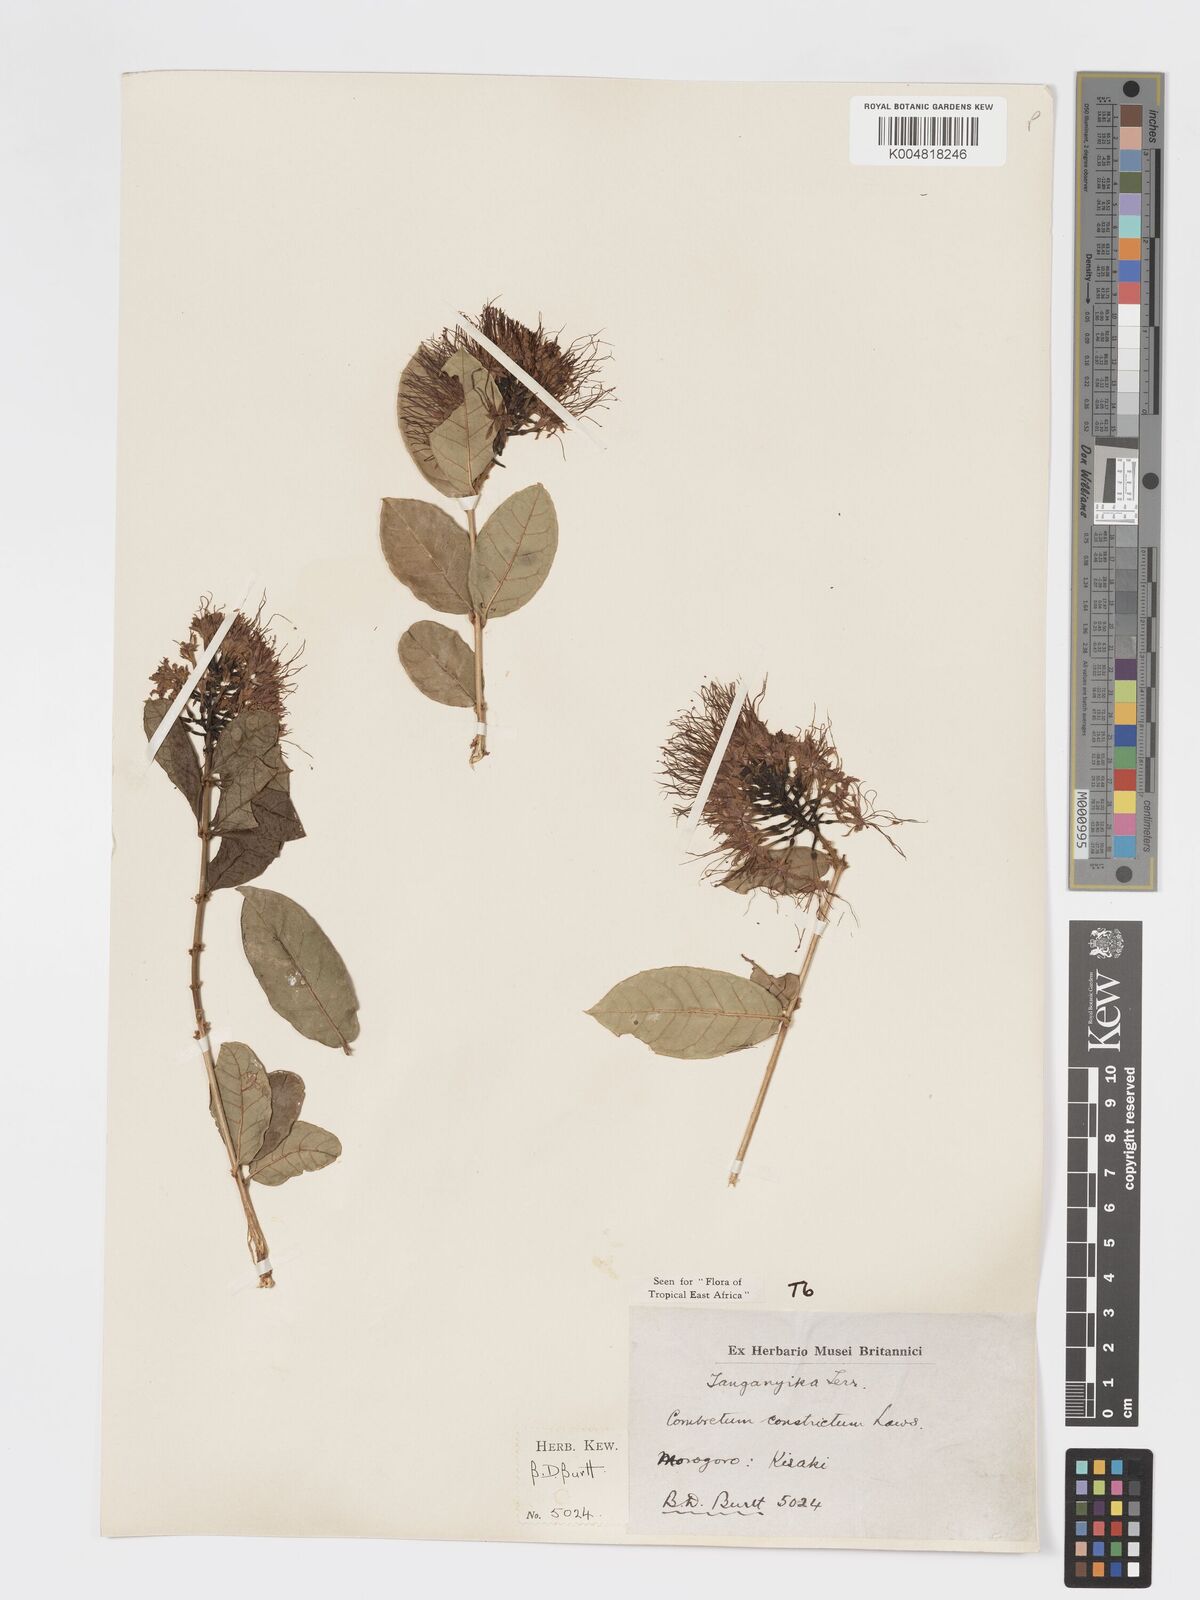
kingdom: Plantae
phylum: Tracheophyta
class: Magnoliopsida
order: Myrtales
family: Combretaceae
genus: Combretum
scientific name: Combretum constrictum
